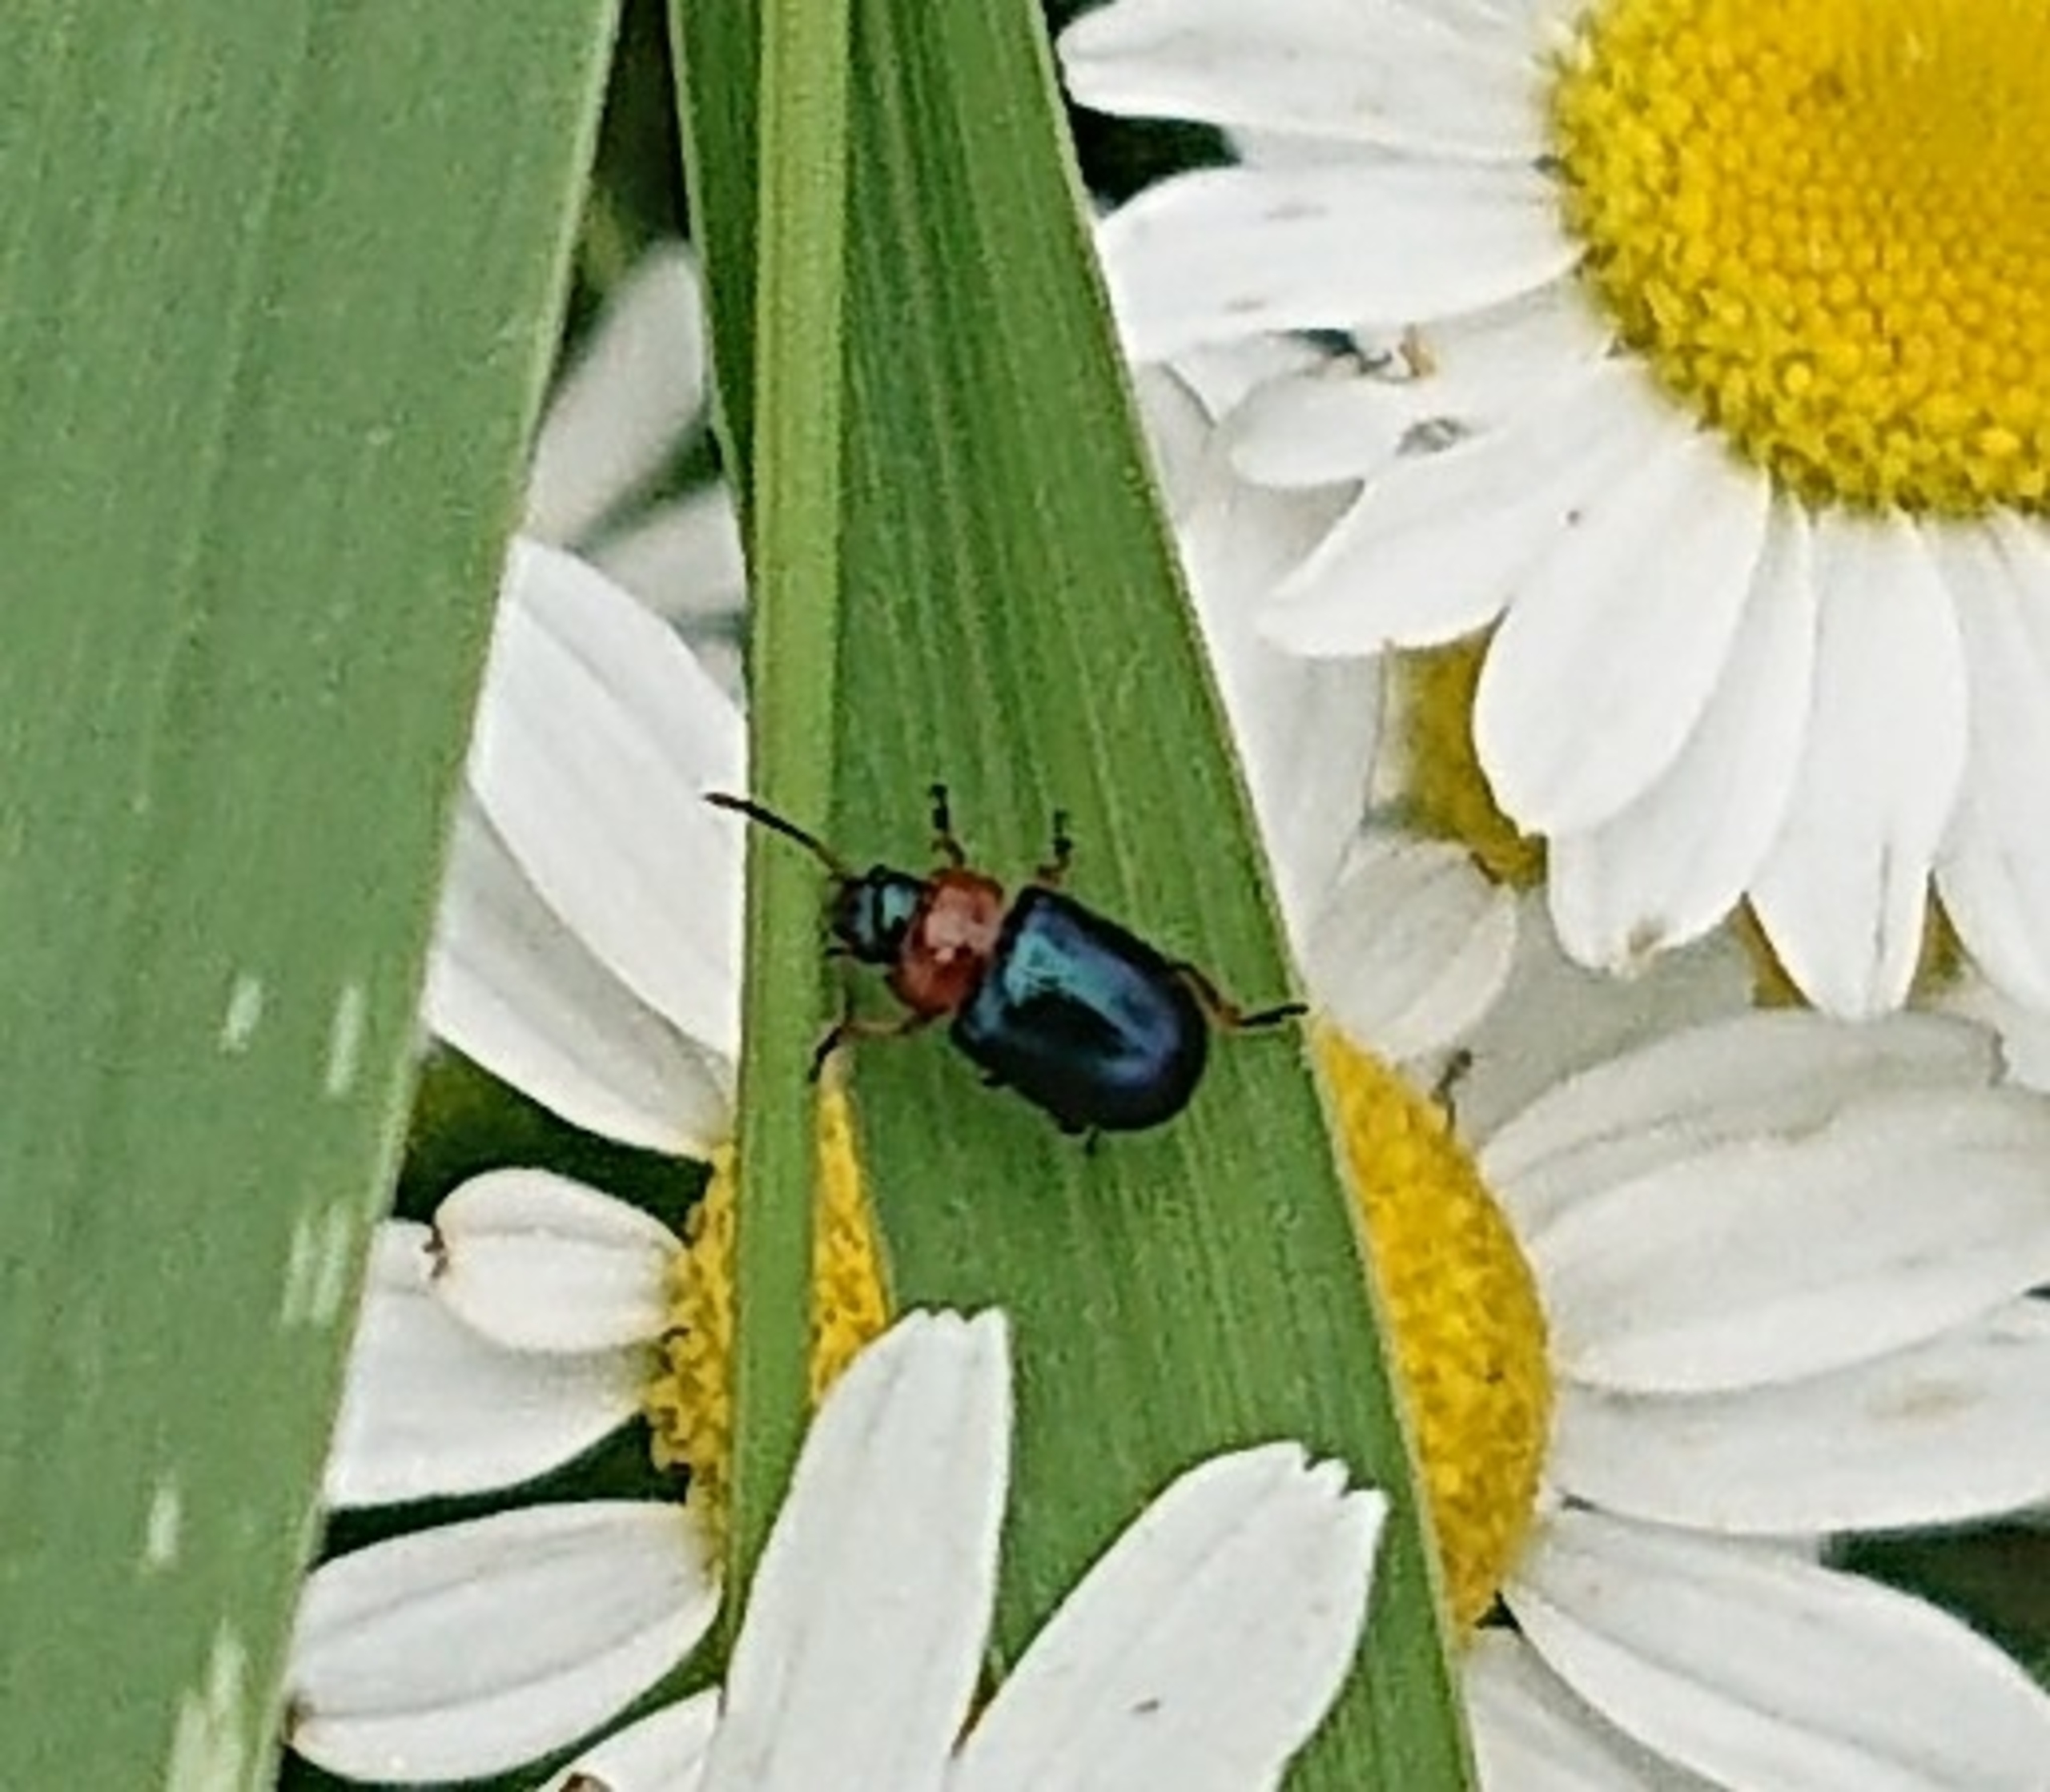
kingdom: Animalia
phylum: Arthropoda
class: Insecta
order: Coleoptera
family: Chrysomelidae
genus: Gastrophysa
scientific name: Gastrophysa polygoni
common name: Pileurtbladbille
